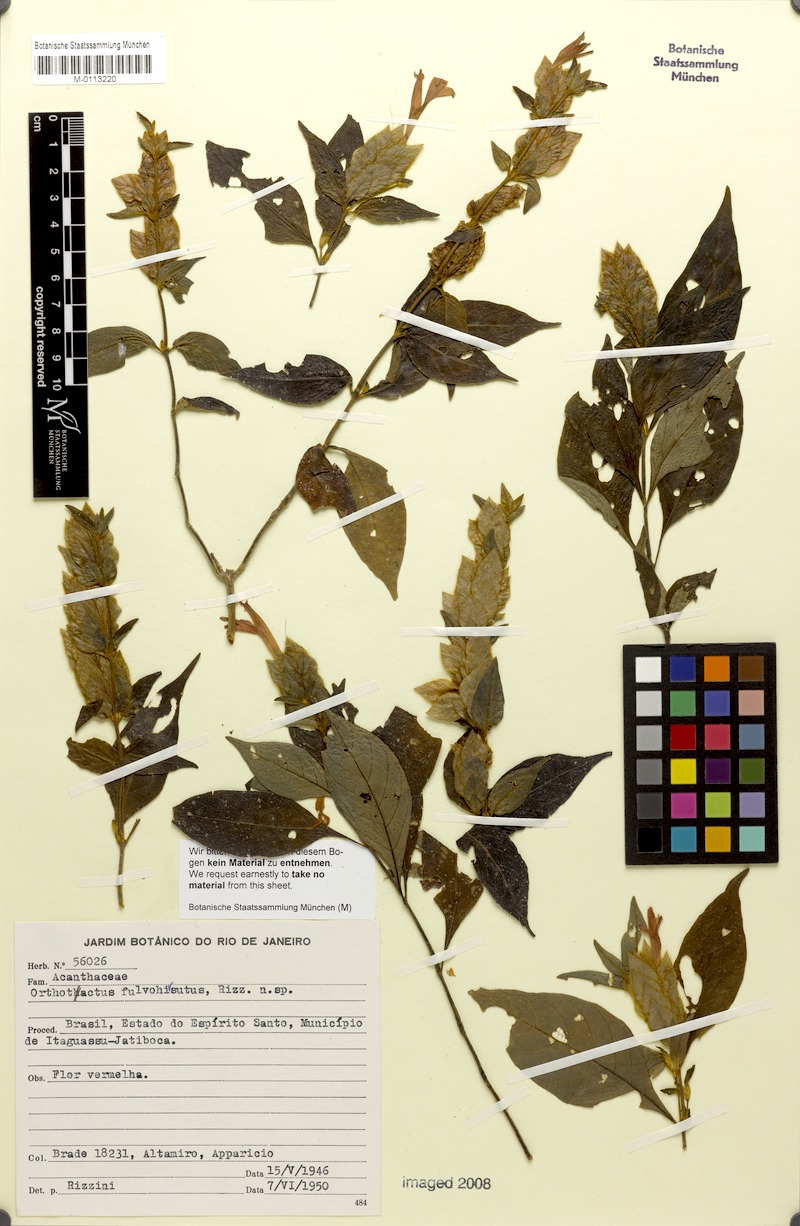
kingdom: Plantae
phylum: Tracheophyta
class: Magnoliopsida
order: Lamiales
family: Acanthaceae
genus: Justicia
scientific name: Justicia fulvohirsuta
